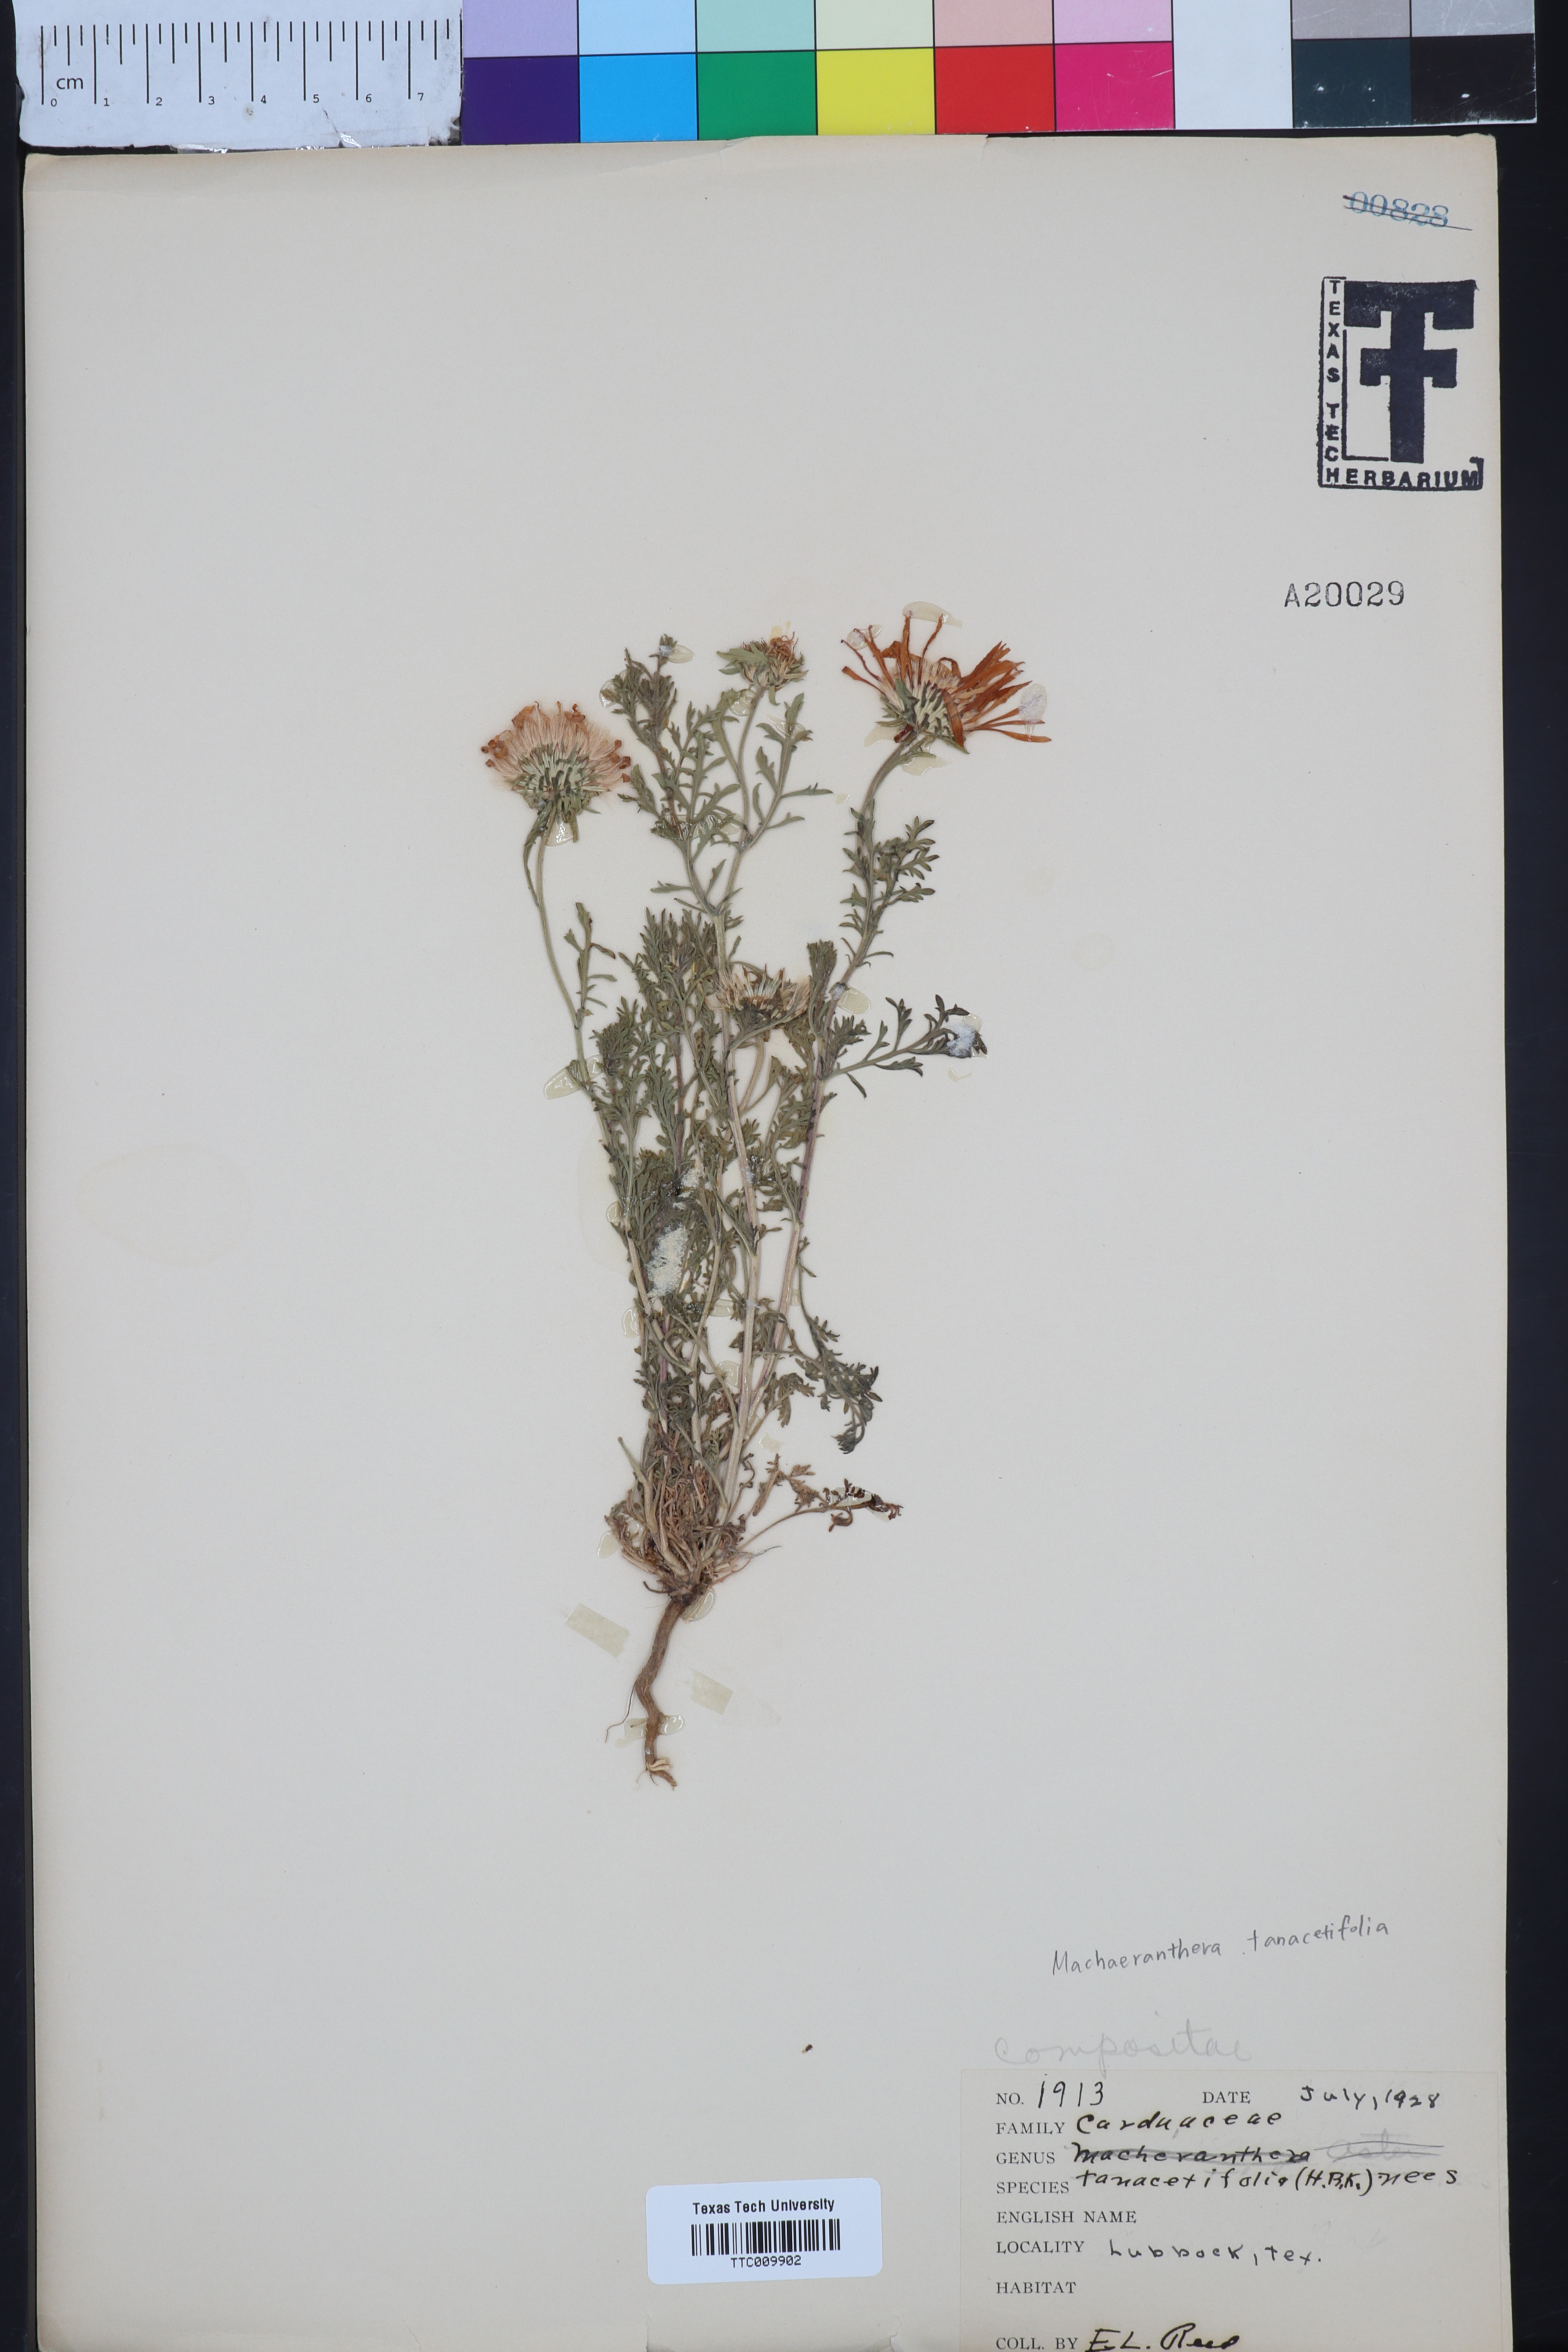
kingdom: Plantae
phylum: Tracheophyta
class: Magnoliopsida
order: Asterales
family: Asteraceae
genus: Machaeranthera
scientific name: Machaeranthera tanacetifolia
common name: Tansy-aster
